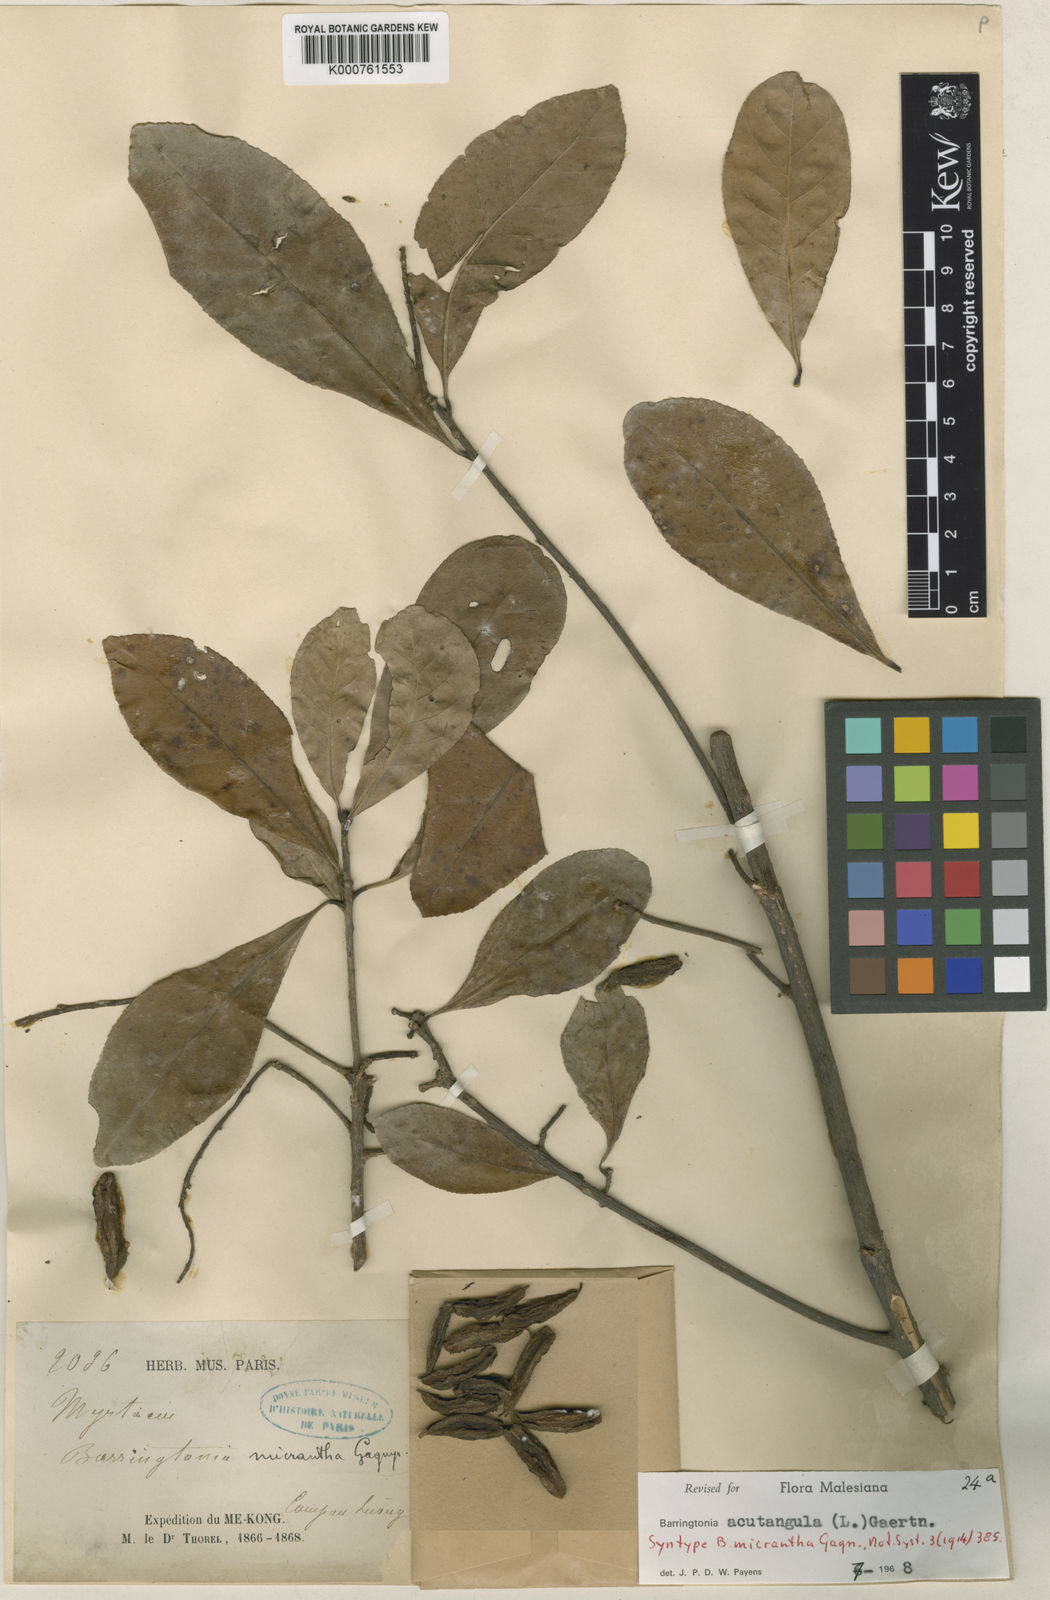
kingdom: Plantae
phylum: Tracheophyta
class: Magnoliopsida
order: Ericales
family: Lecythidaceae
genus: Barringtonia
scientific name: Barringtonia acutangula
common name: Freshwater mangrove
